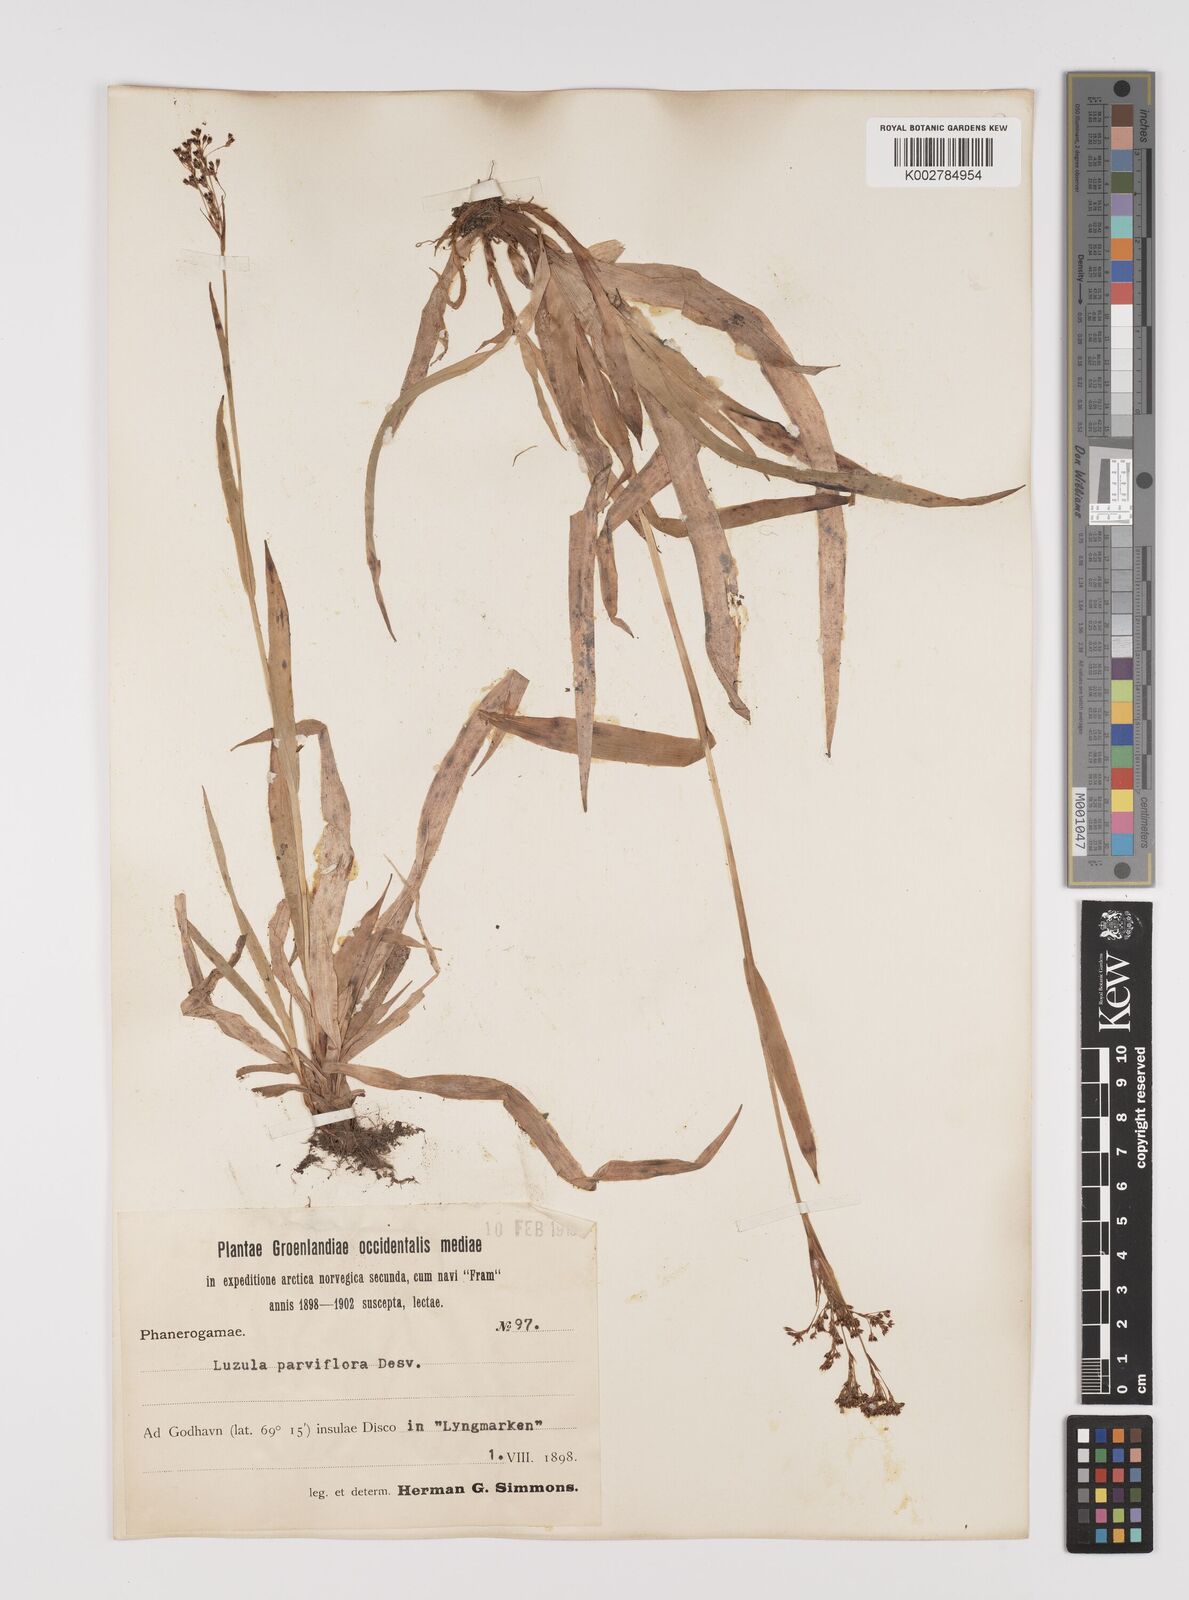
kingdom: Plantae
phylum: Tracheophyta
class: Liliopsida
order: Poales
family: Juncaceae
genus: Luzula
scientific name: Luzula parviflora
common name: Millet woodrush
